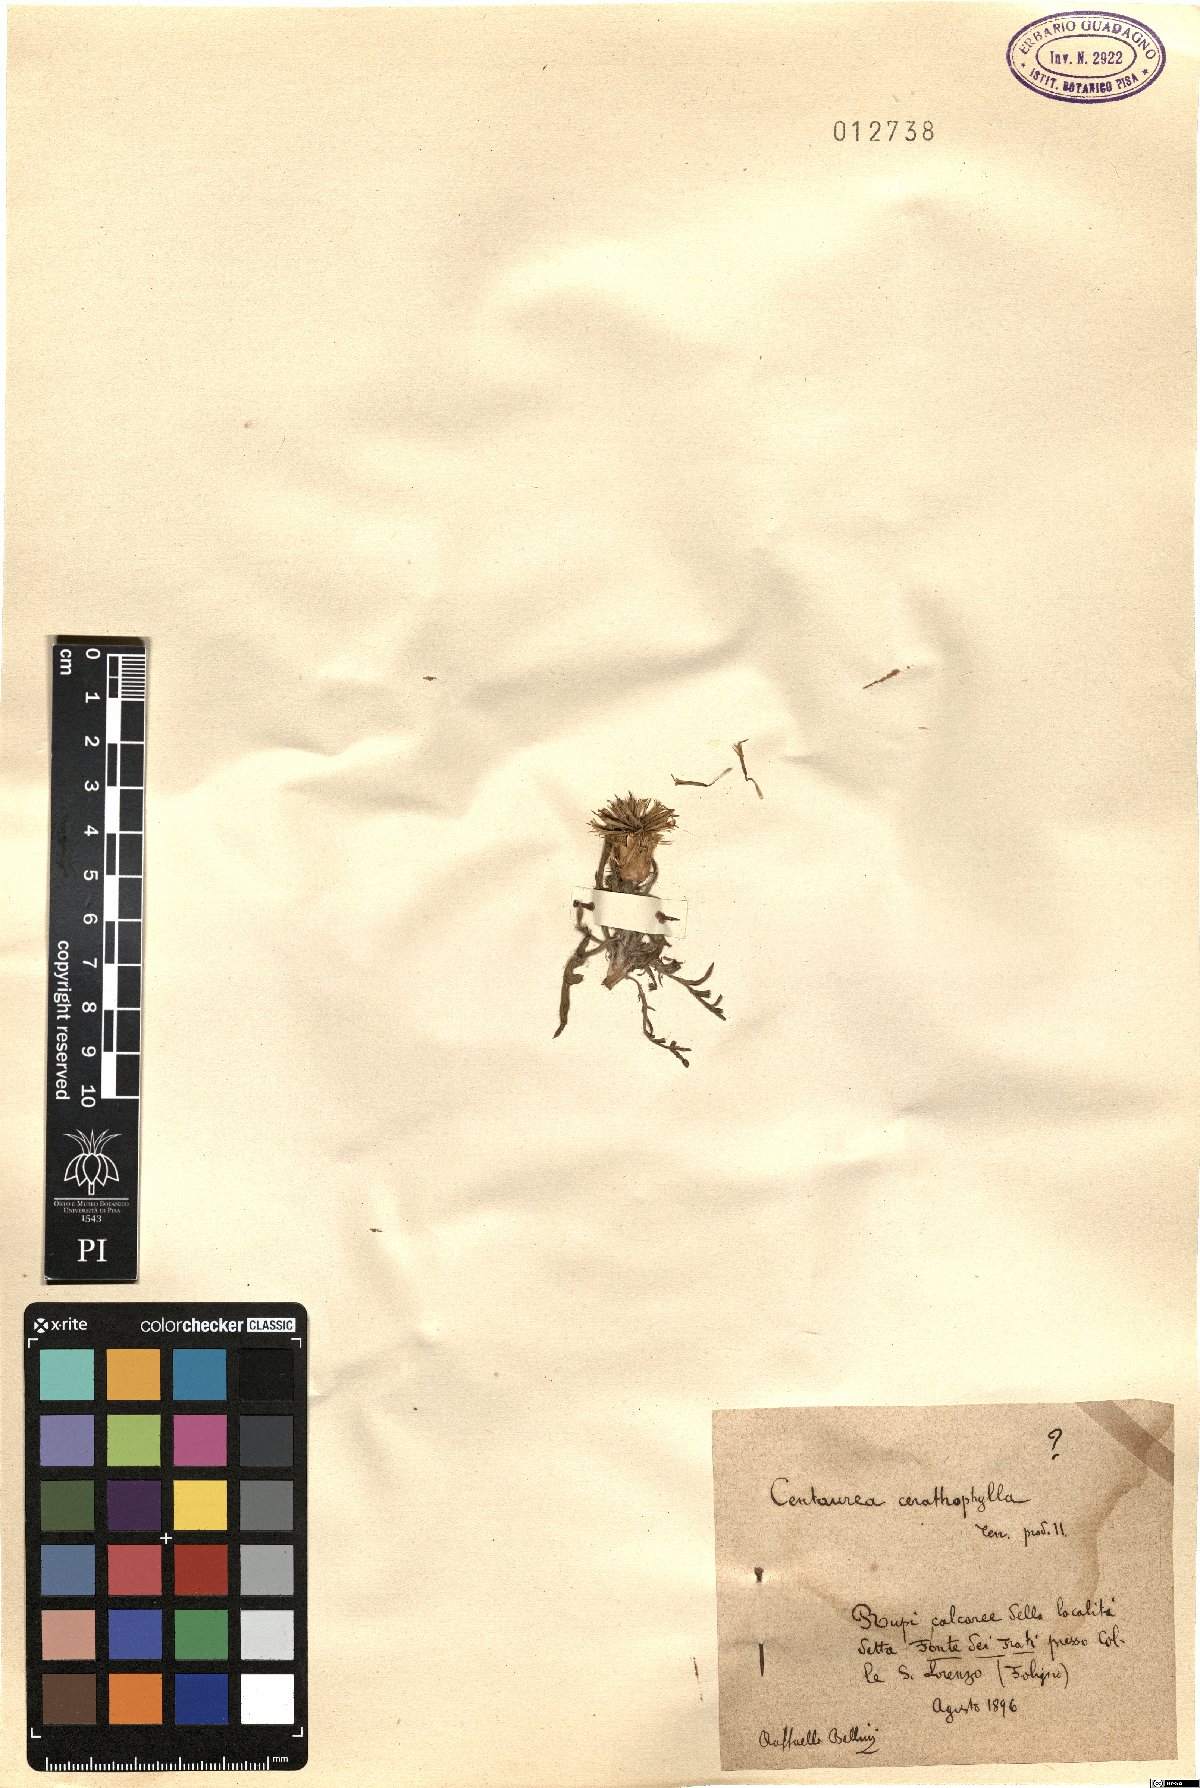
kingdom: Plantae
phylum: Tracheophyta
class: Magnoliopsida
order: Asterales
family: Asteraceae
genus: Centaurea
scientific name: Centaurea ceratophylla
